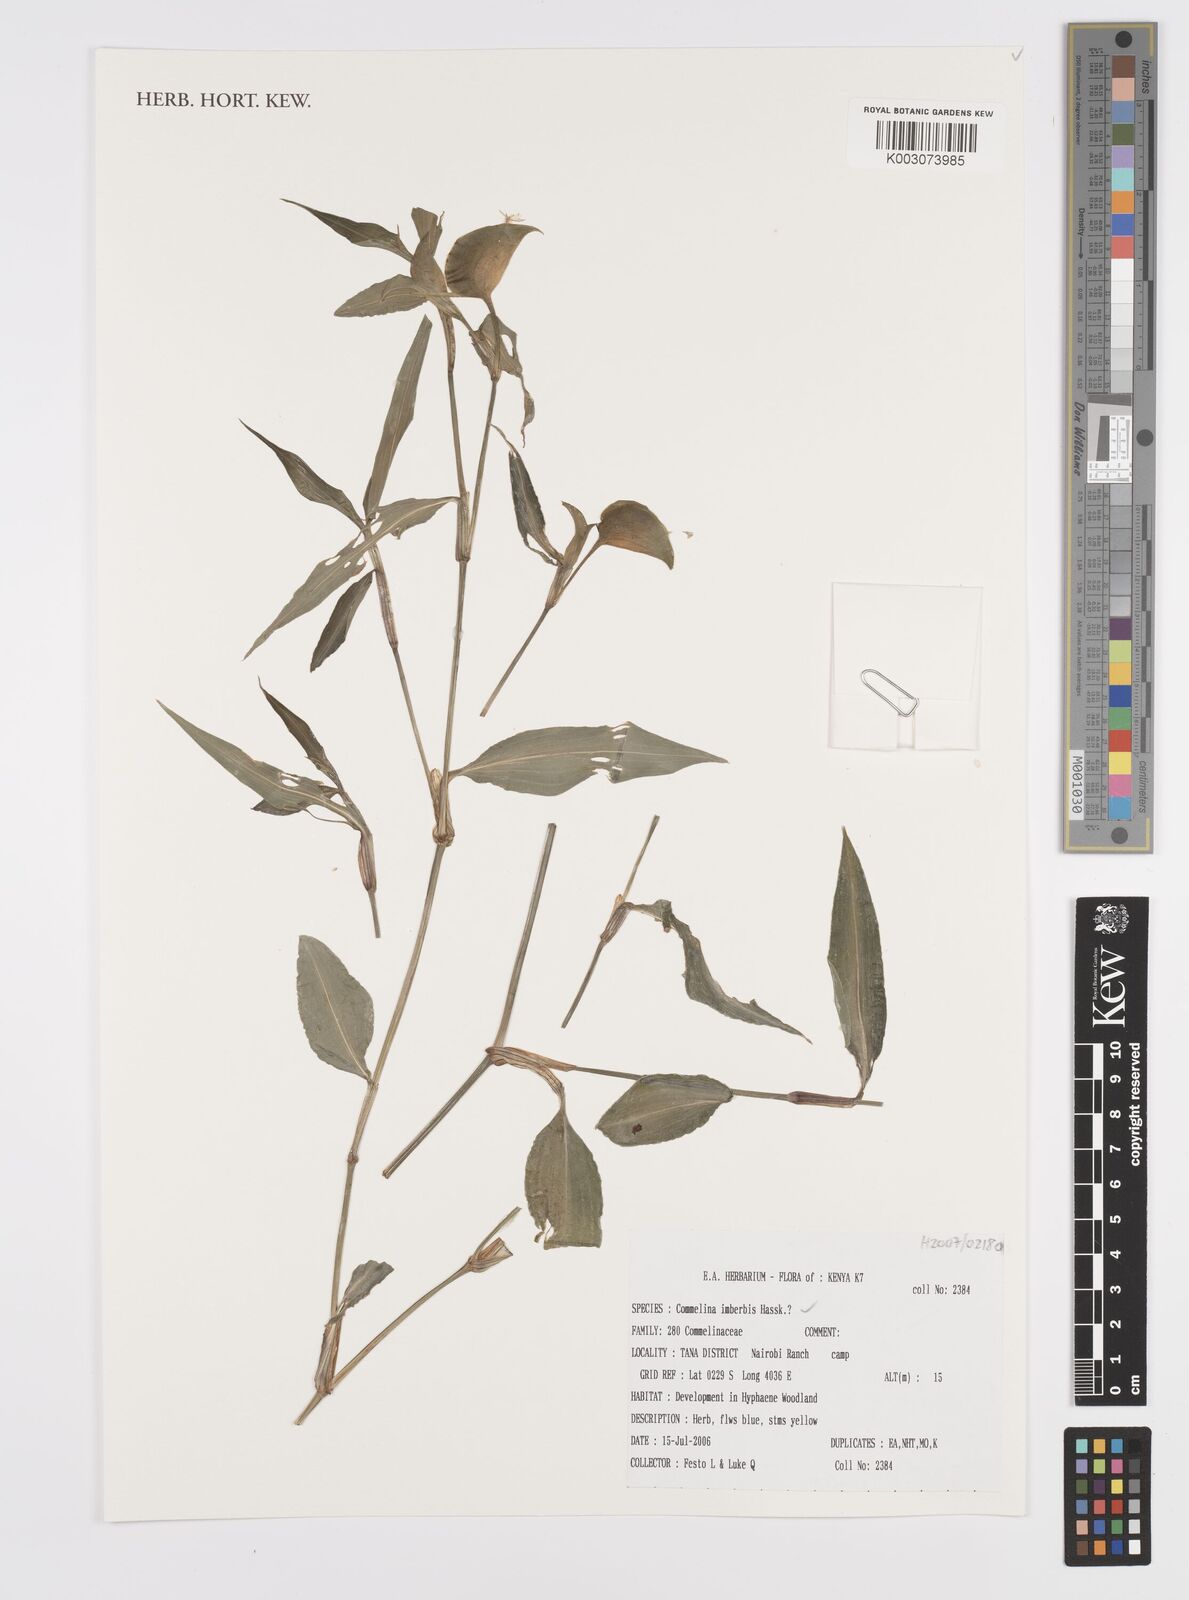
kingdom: Plantae
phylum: Tracheophyta
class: Liliopsida
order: Commelinales
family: Commelinaceae
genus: Commelina
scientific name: Commelina imberbis
